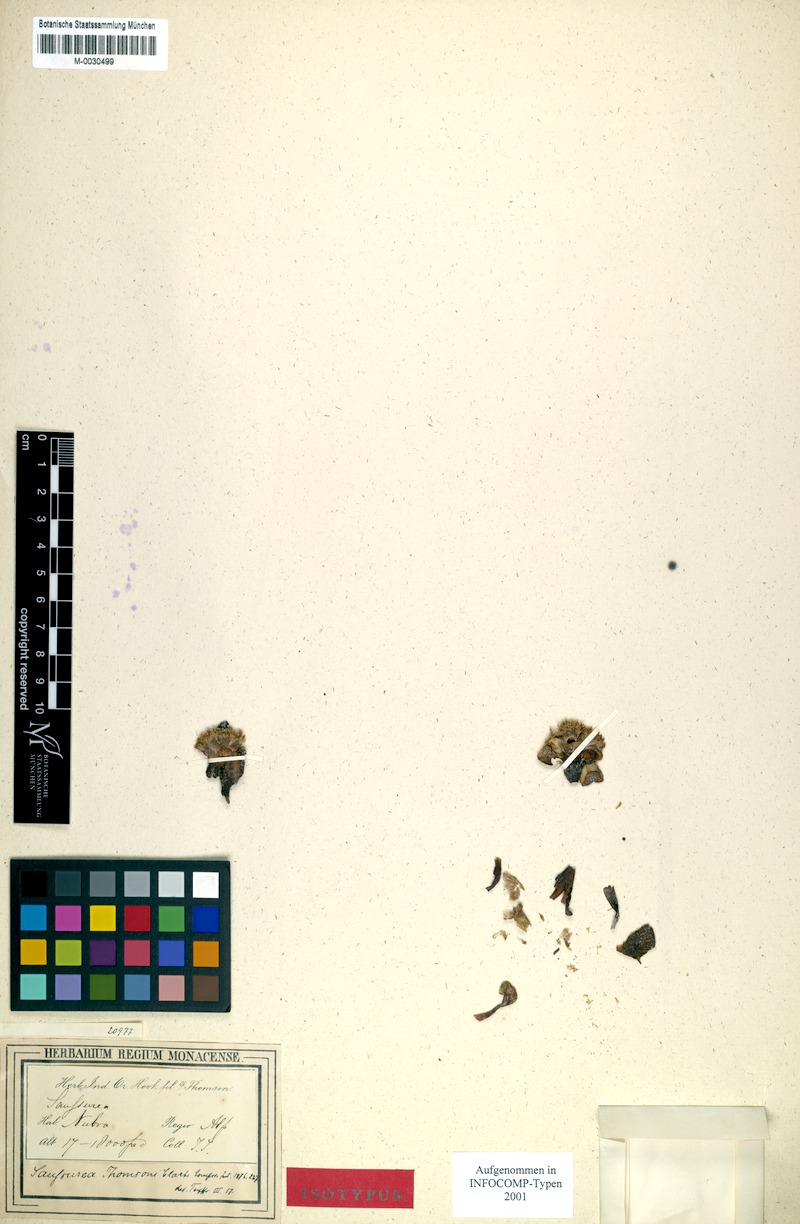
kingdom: Plantae
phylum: Tracheophyta
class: Magnoliopsida
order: Asterales
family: Asteraceae
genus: Saussurea
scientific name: Saussurea thomsonii
